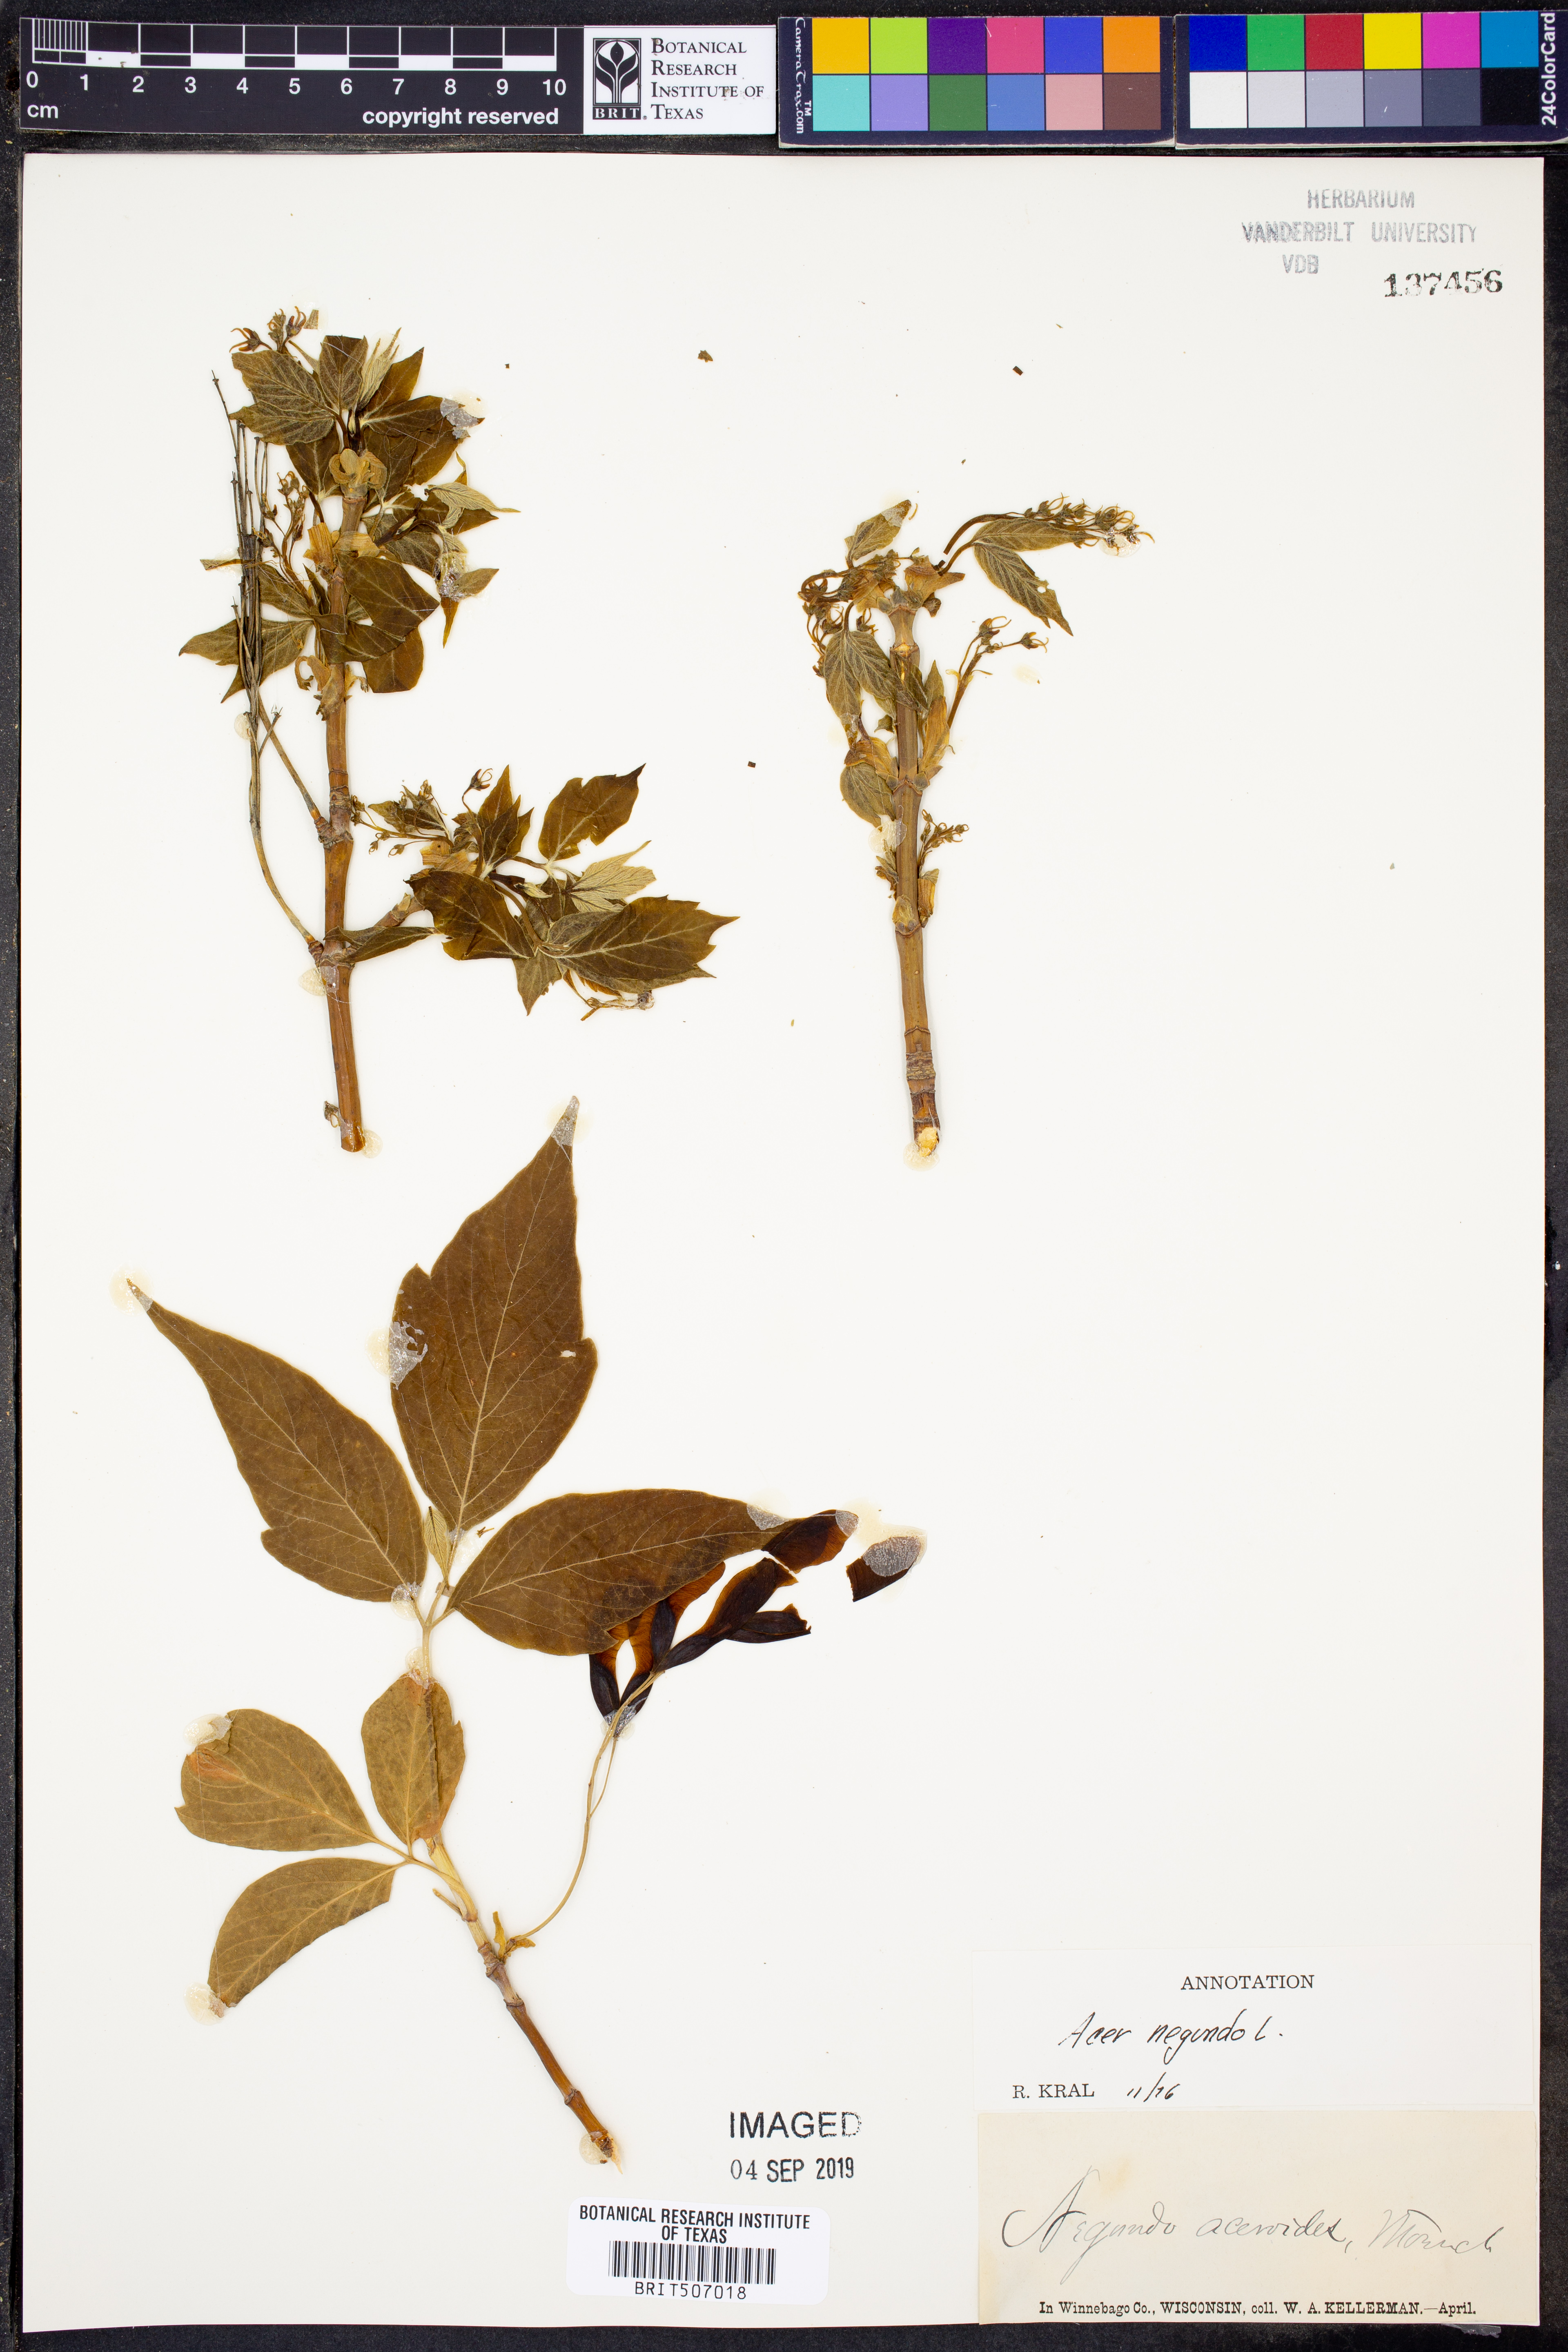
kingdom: Plantae
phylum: Tracheophyta
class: Magnoliopsida
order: Sapindales
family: Sapindaceae
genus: Acer
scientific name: Acer negundo
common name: Ashleaf maple
